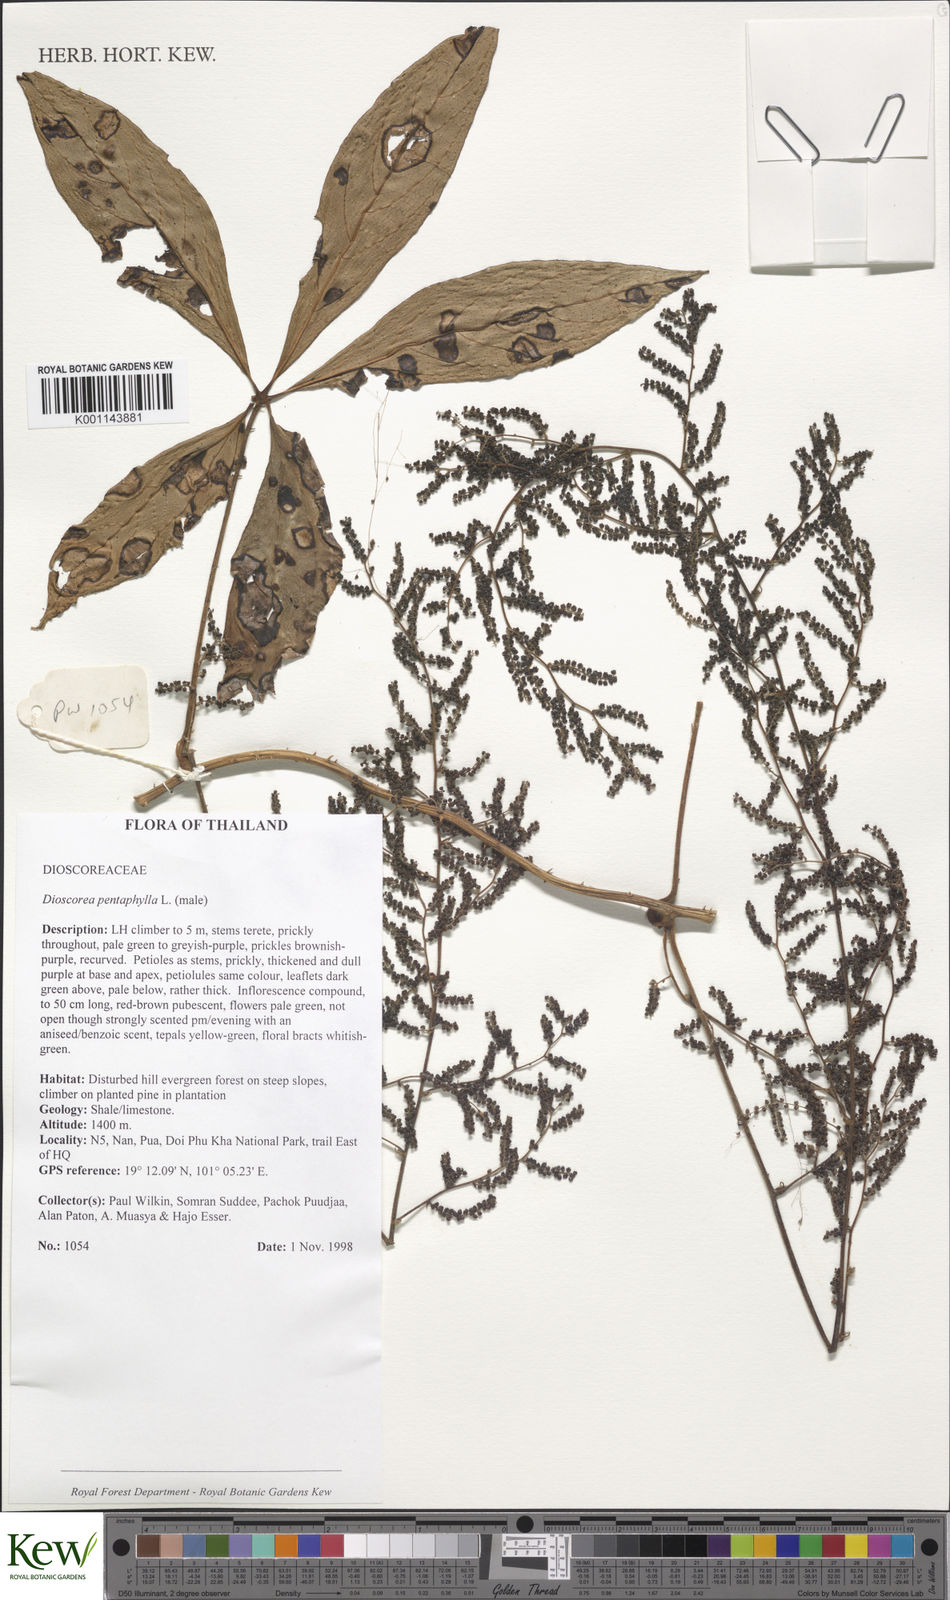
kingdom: Plantae
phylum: Tracheophyta
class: Liliopsida
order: Dioscoreales
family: Dioscoreaceae
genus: Dioscorea
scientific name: Dioscorea pentaphylla
